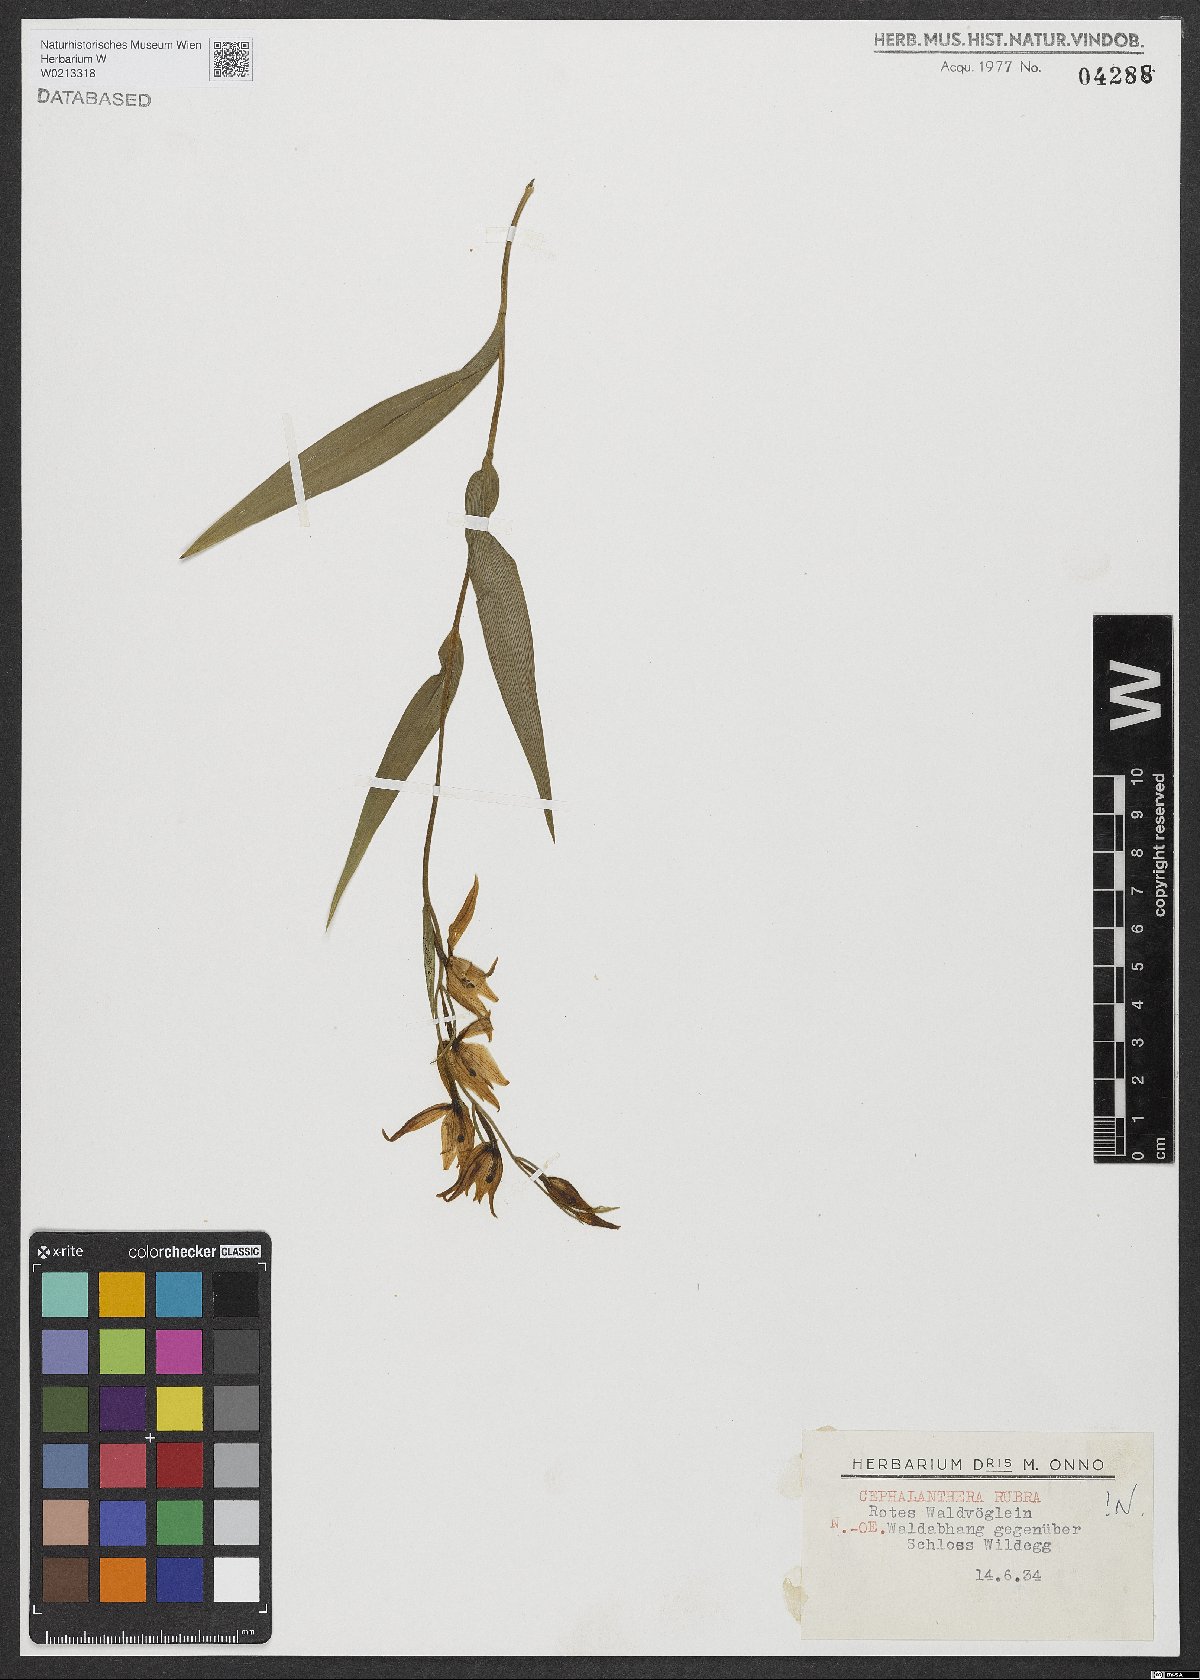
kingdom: Plantae
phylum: Tracheophyta
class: Liliopsida
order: Asparagales
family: Orchidaceae
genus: Cephalanthera
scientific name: Cephalanthera rubra
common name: Red helleborine
